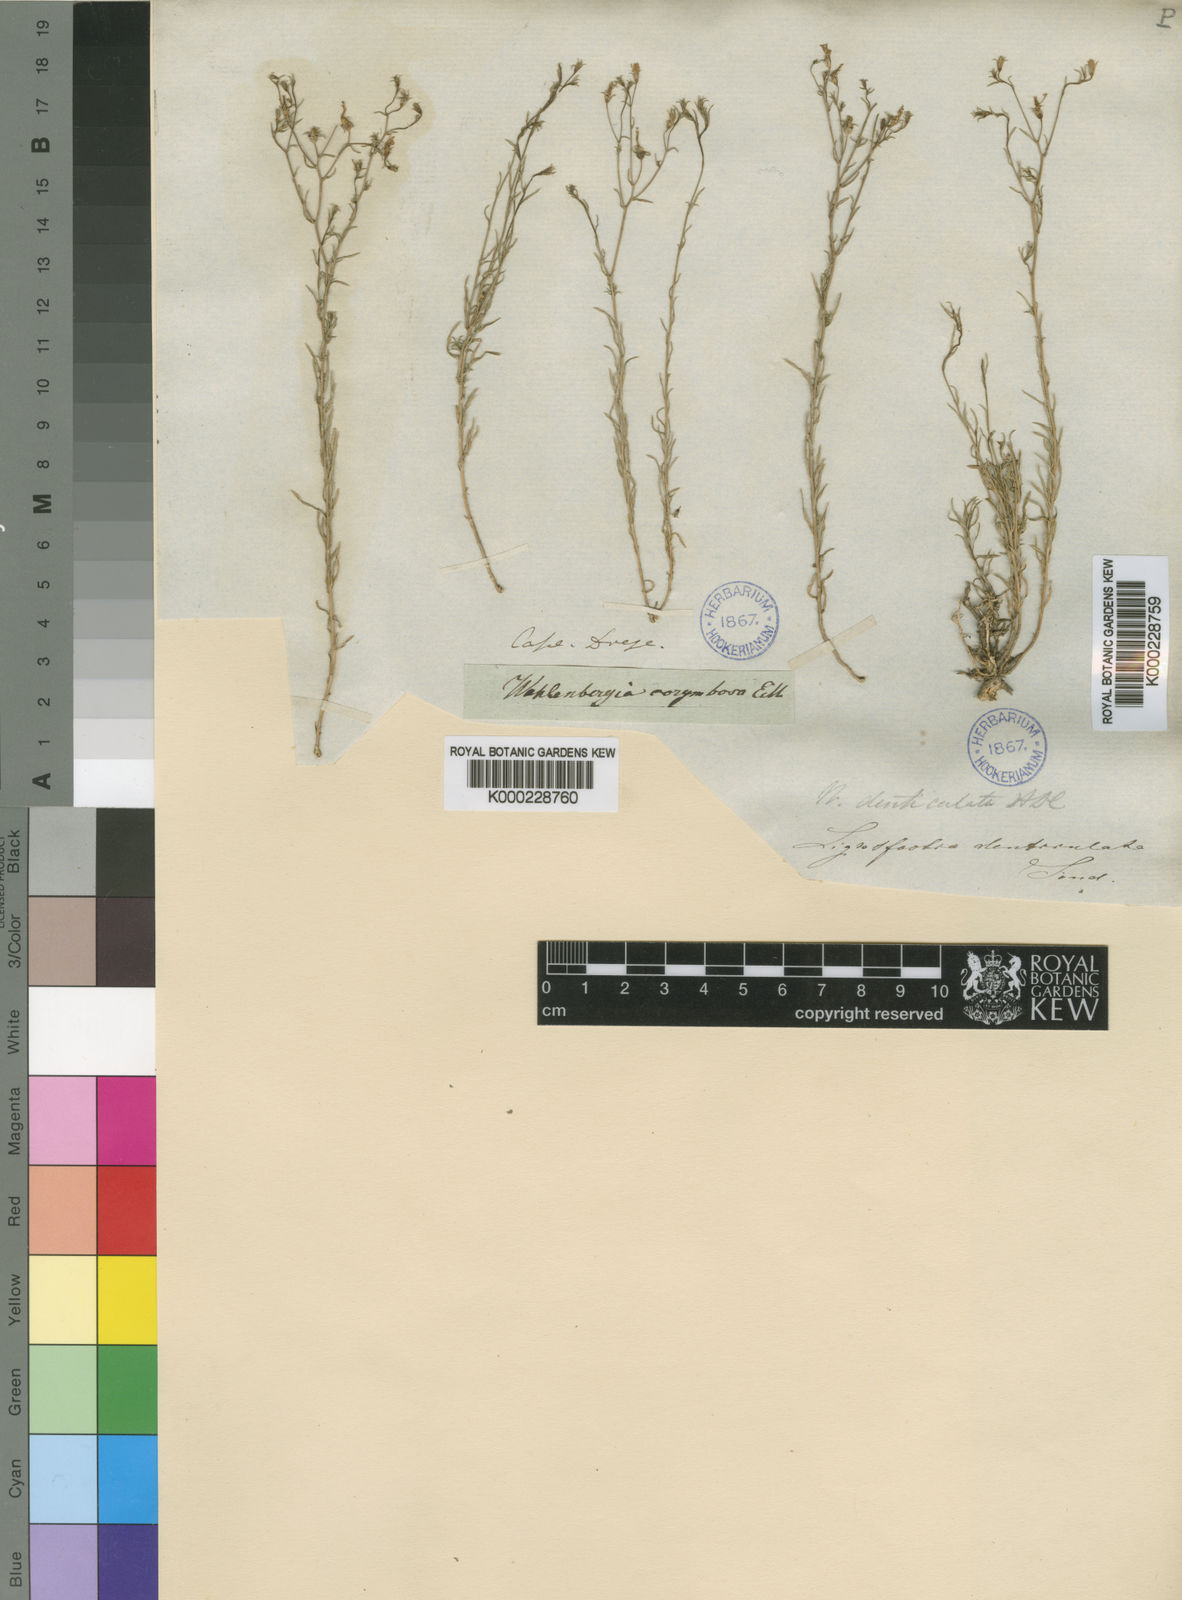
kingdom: Plantae
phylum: Tracheophyta
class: Magnoliopsida
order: Asterales
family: Campanulaceae
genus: Wahlenbergia
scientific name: Wahlenbergia denticulata
